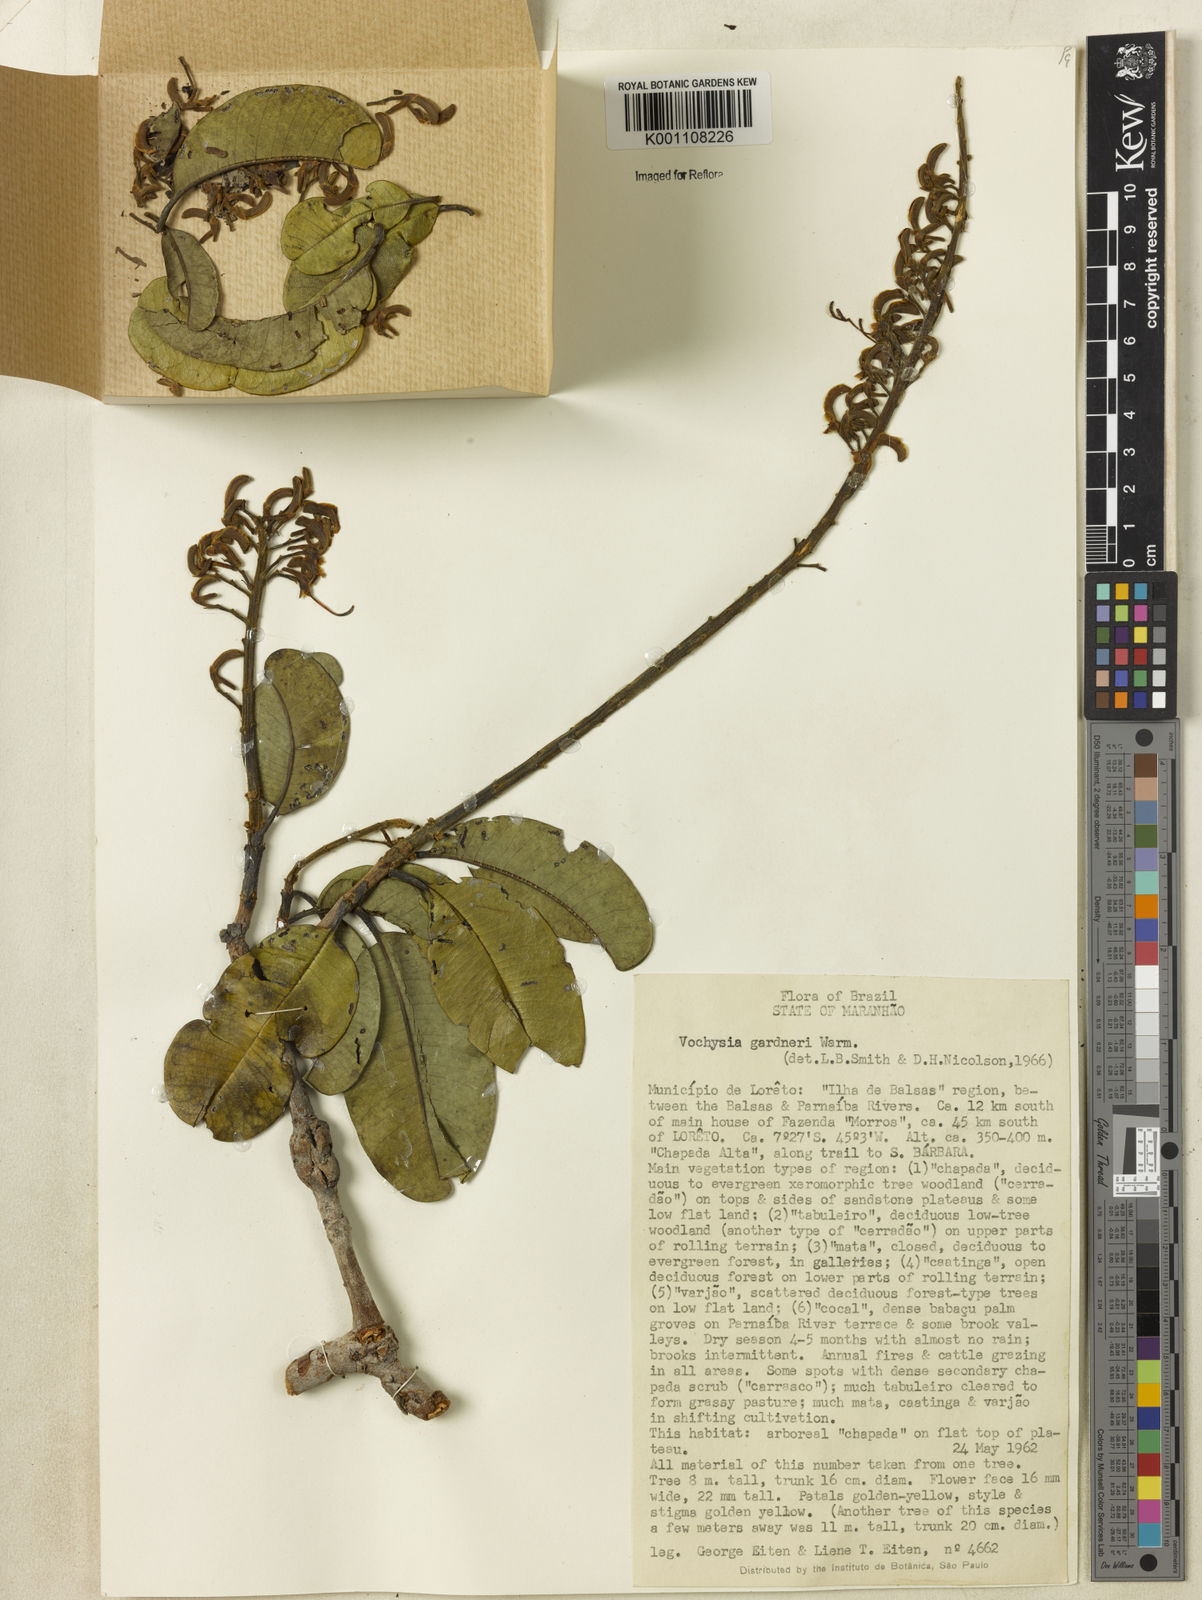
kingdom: Plantae
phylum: Tracheophyta
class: Magnoliopsida
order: Myrtales
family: Vochysiaceae
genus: Vochysia
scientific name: Vochysia gardneri
